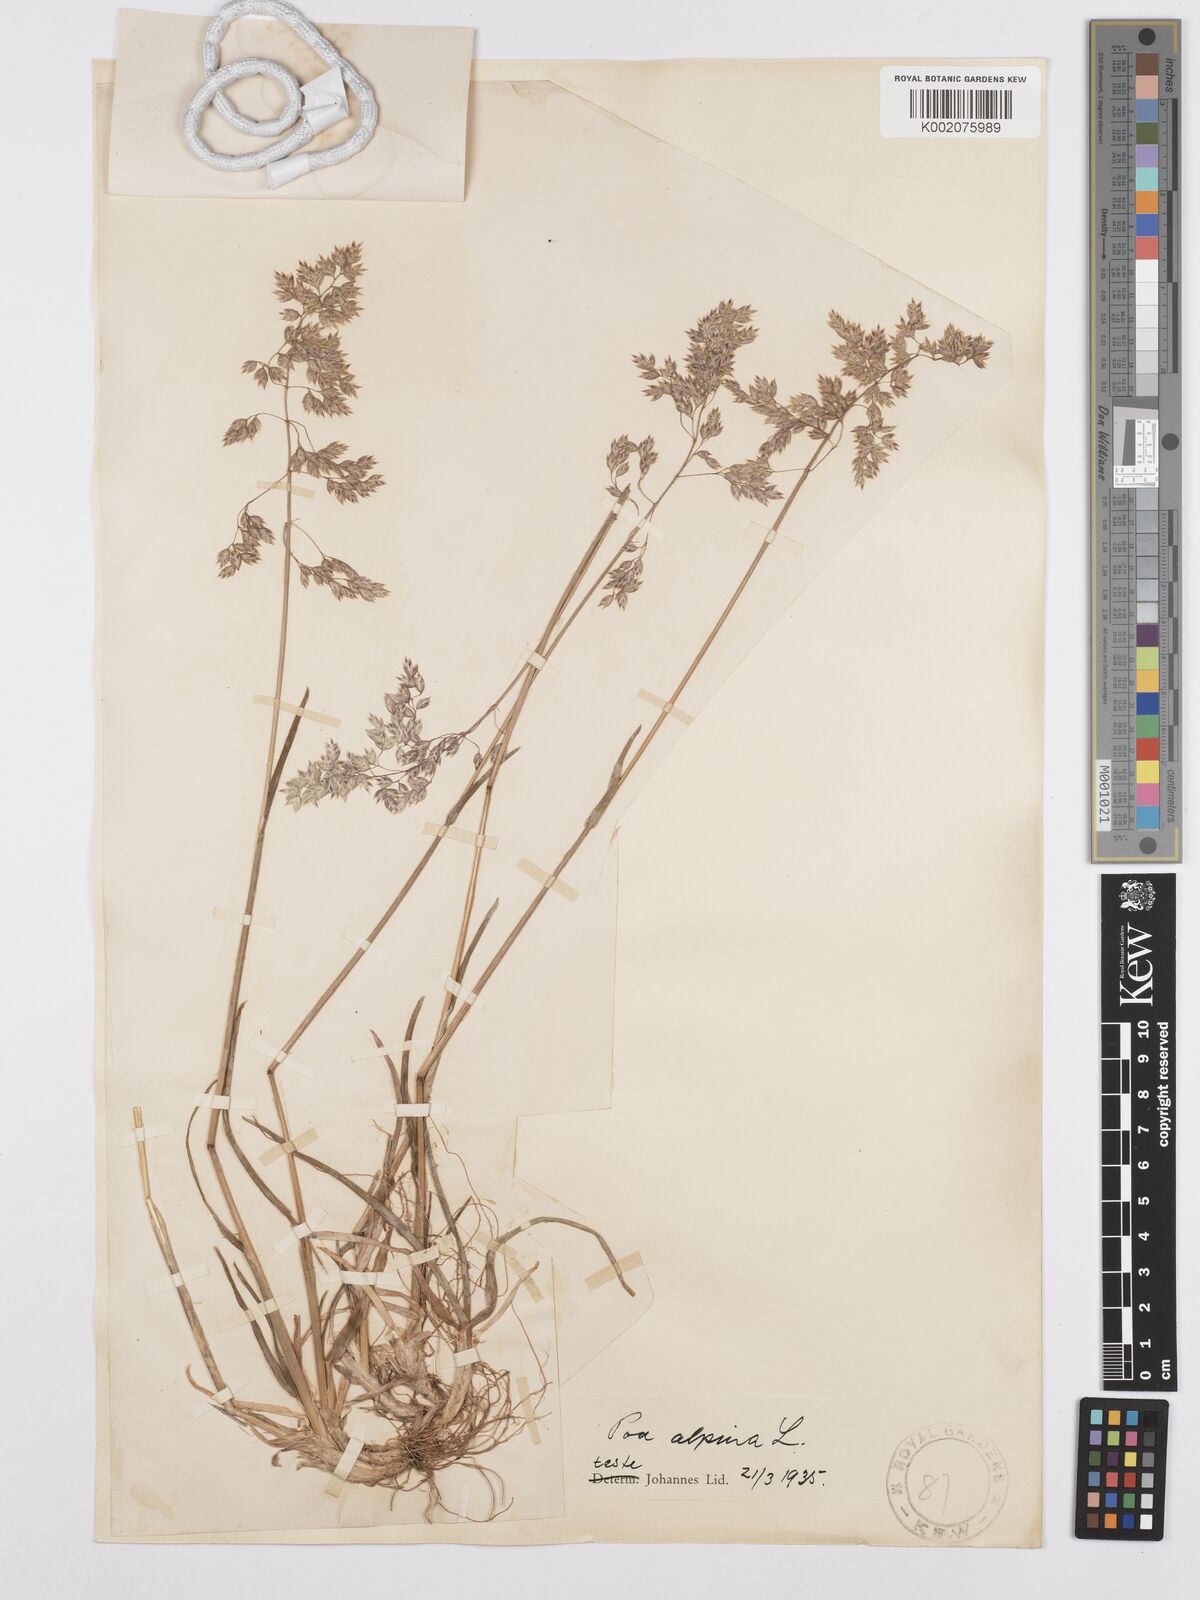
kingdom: Plantae
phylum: Tracheophyta
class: Liliopsida
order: Poales
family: Poaceae
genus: Poa
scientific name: Poa alpina
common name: Alpine bluegrass
